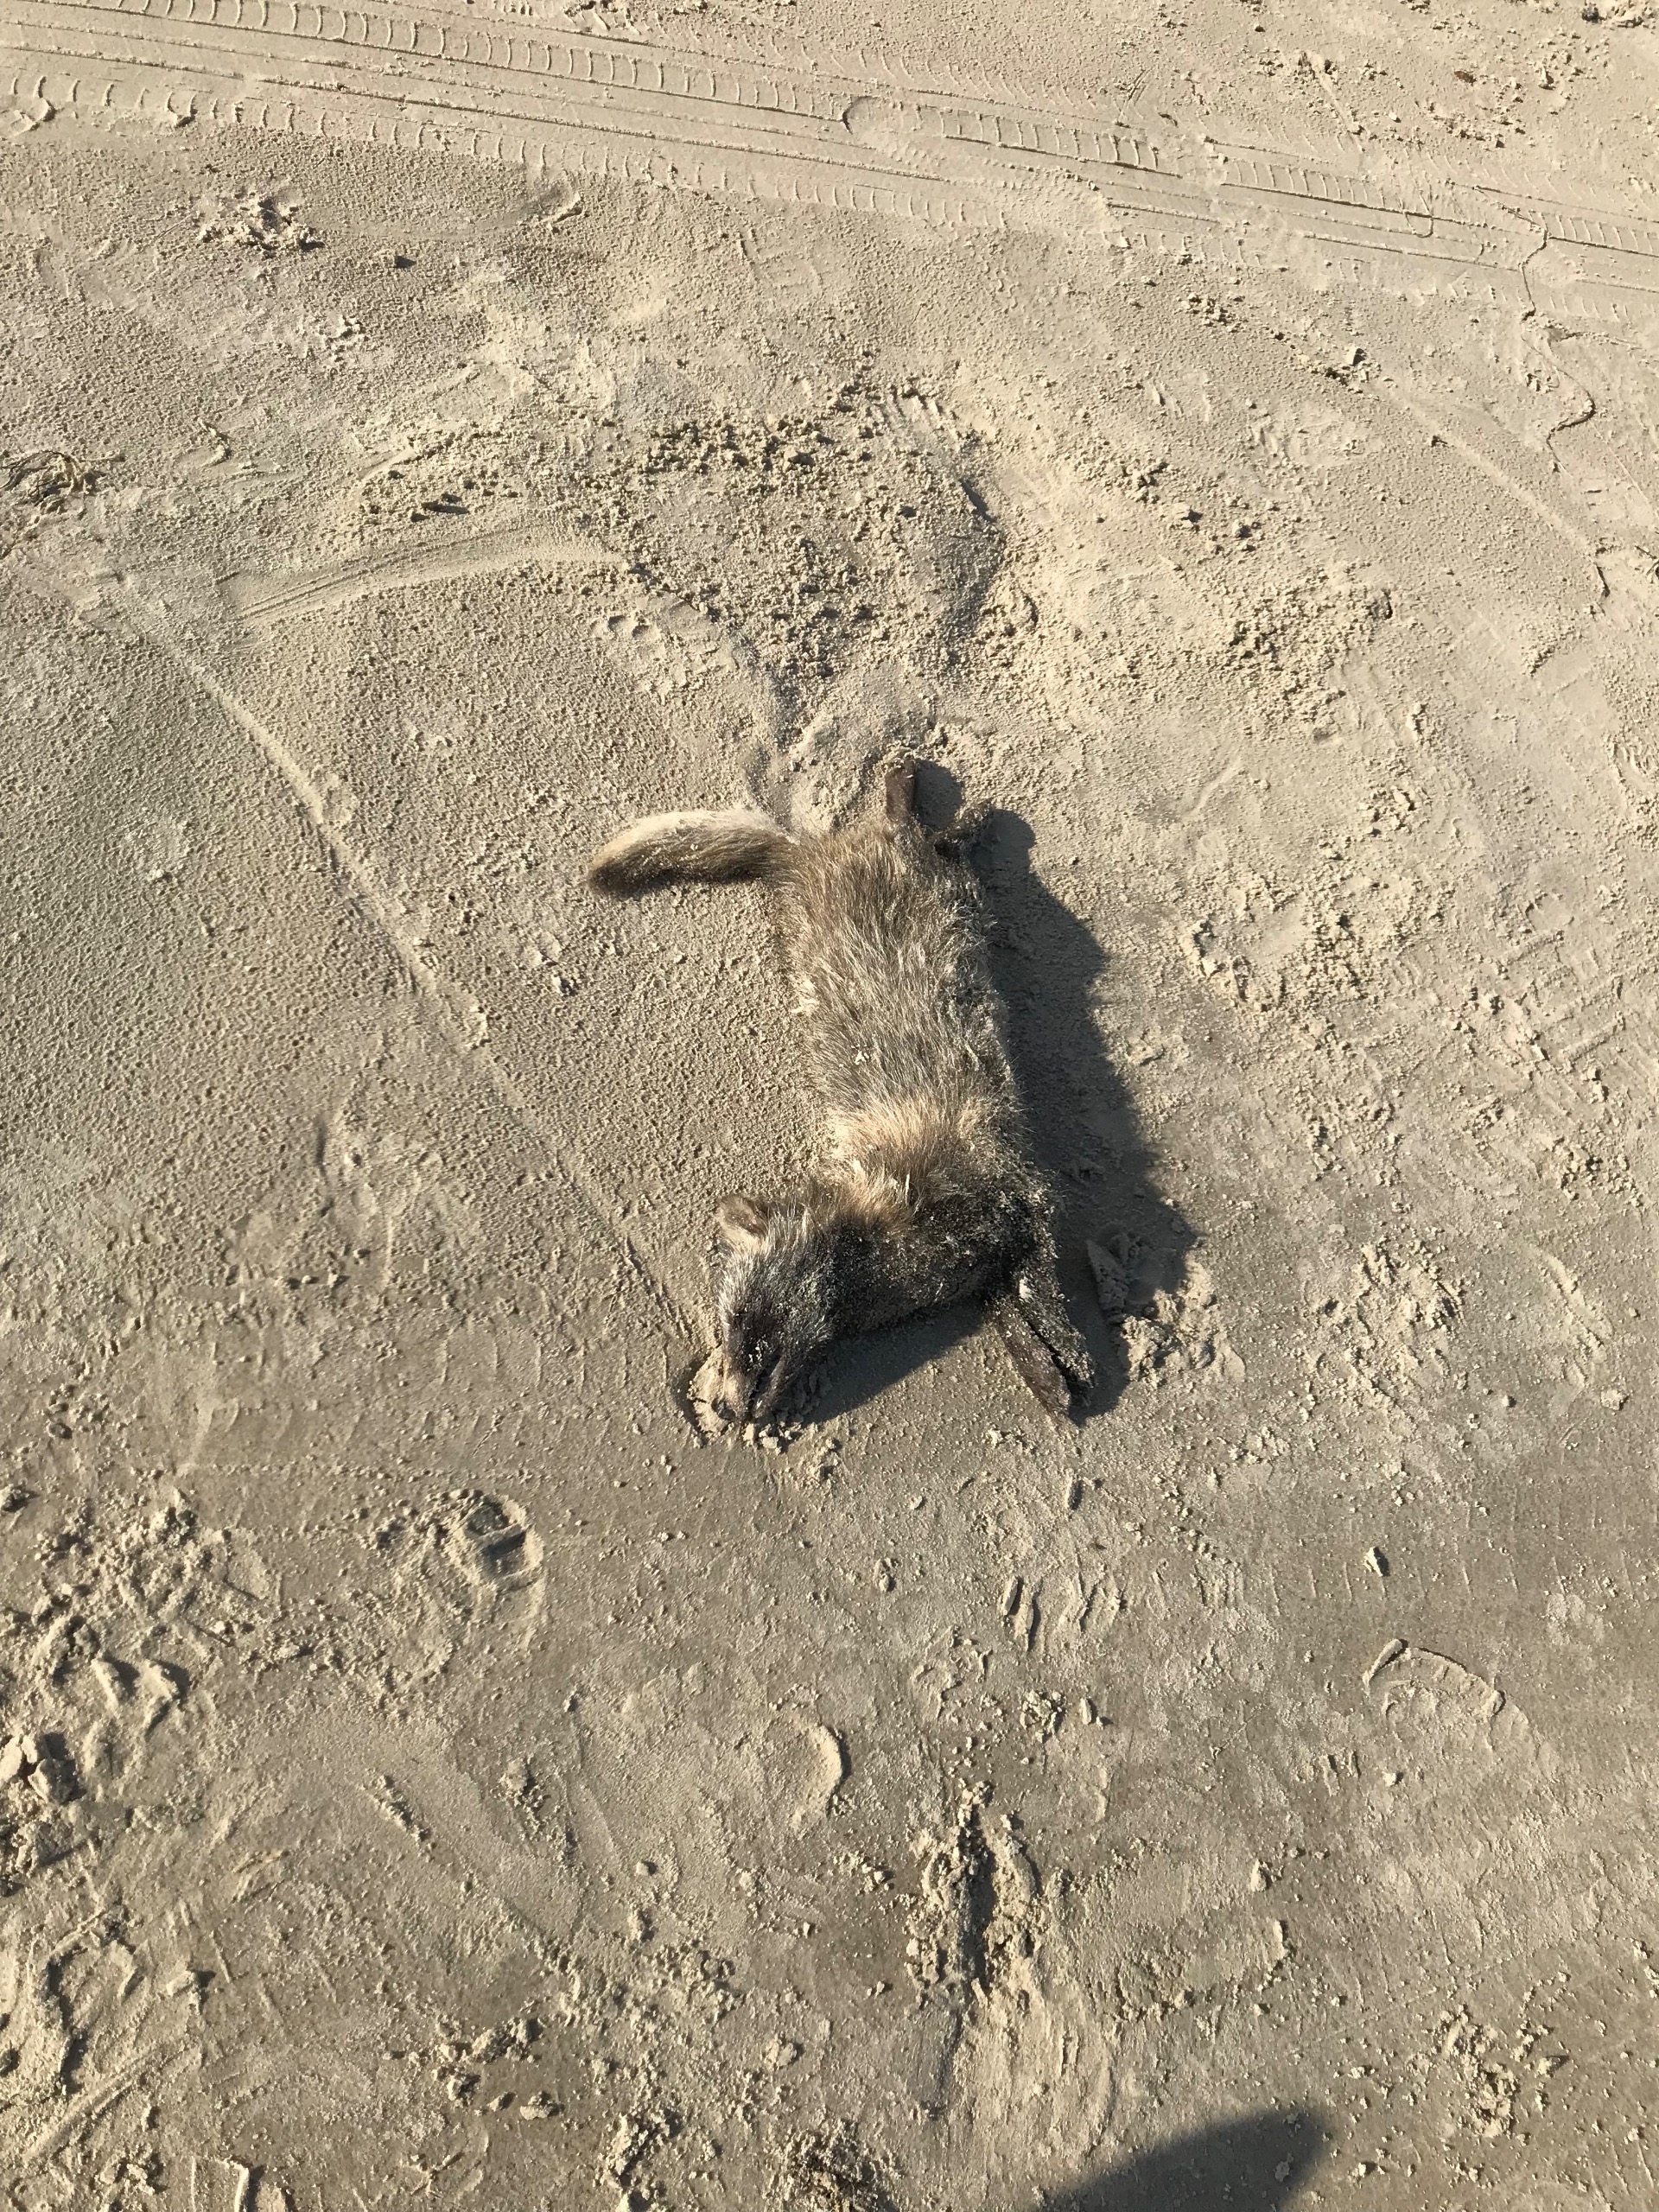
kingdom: Animalia
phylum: Chordata
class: Mammalia
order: Carnivora
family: Canidae
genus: Nyctereutes
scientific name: Nyctereutes procyonoides
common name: Mårhund
